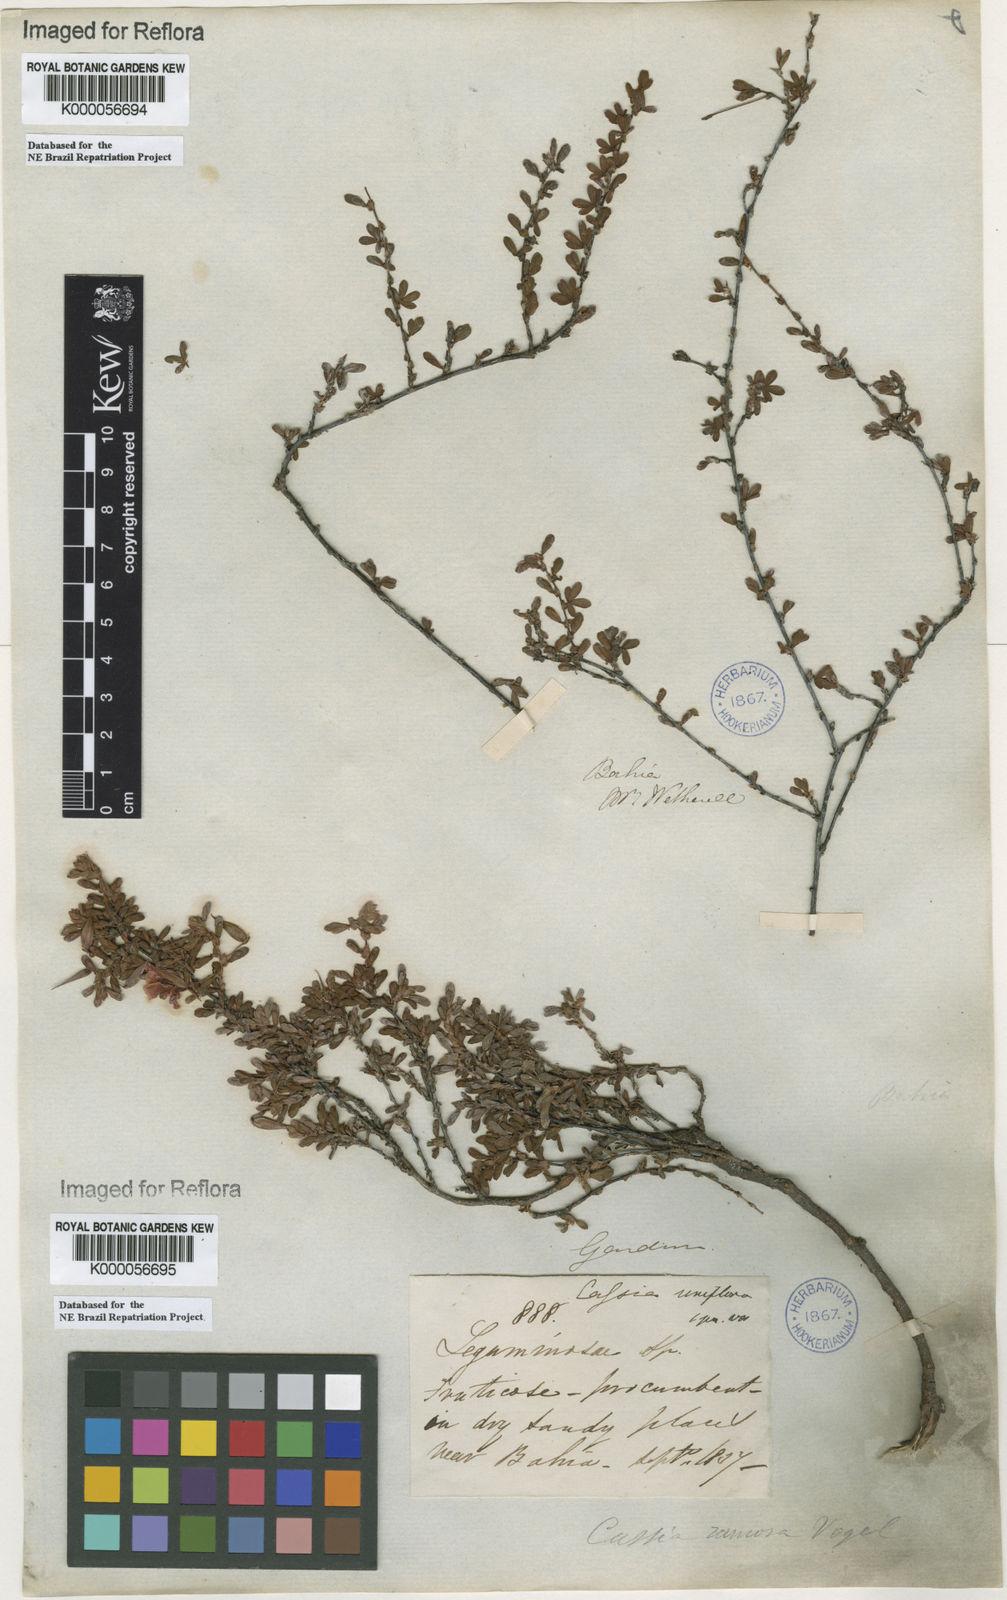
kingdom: Plantae
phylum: Tracheophyta
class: Magnoliopsida
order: Fabales
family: Fabaceae
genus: Chamaecrista
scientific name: Chamaecrista ramosa
